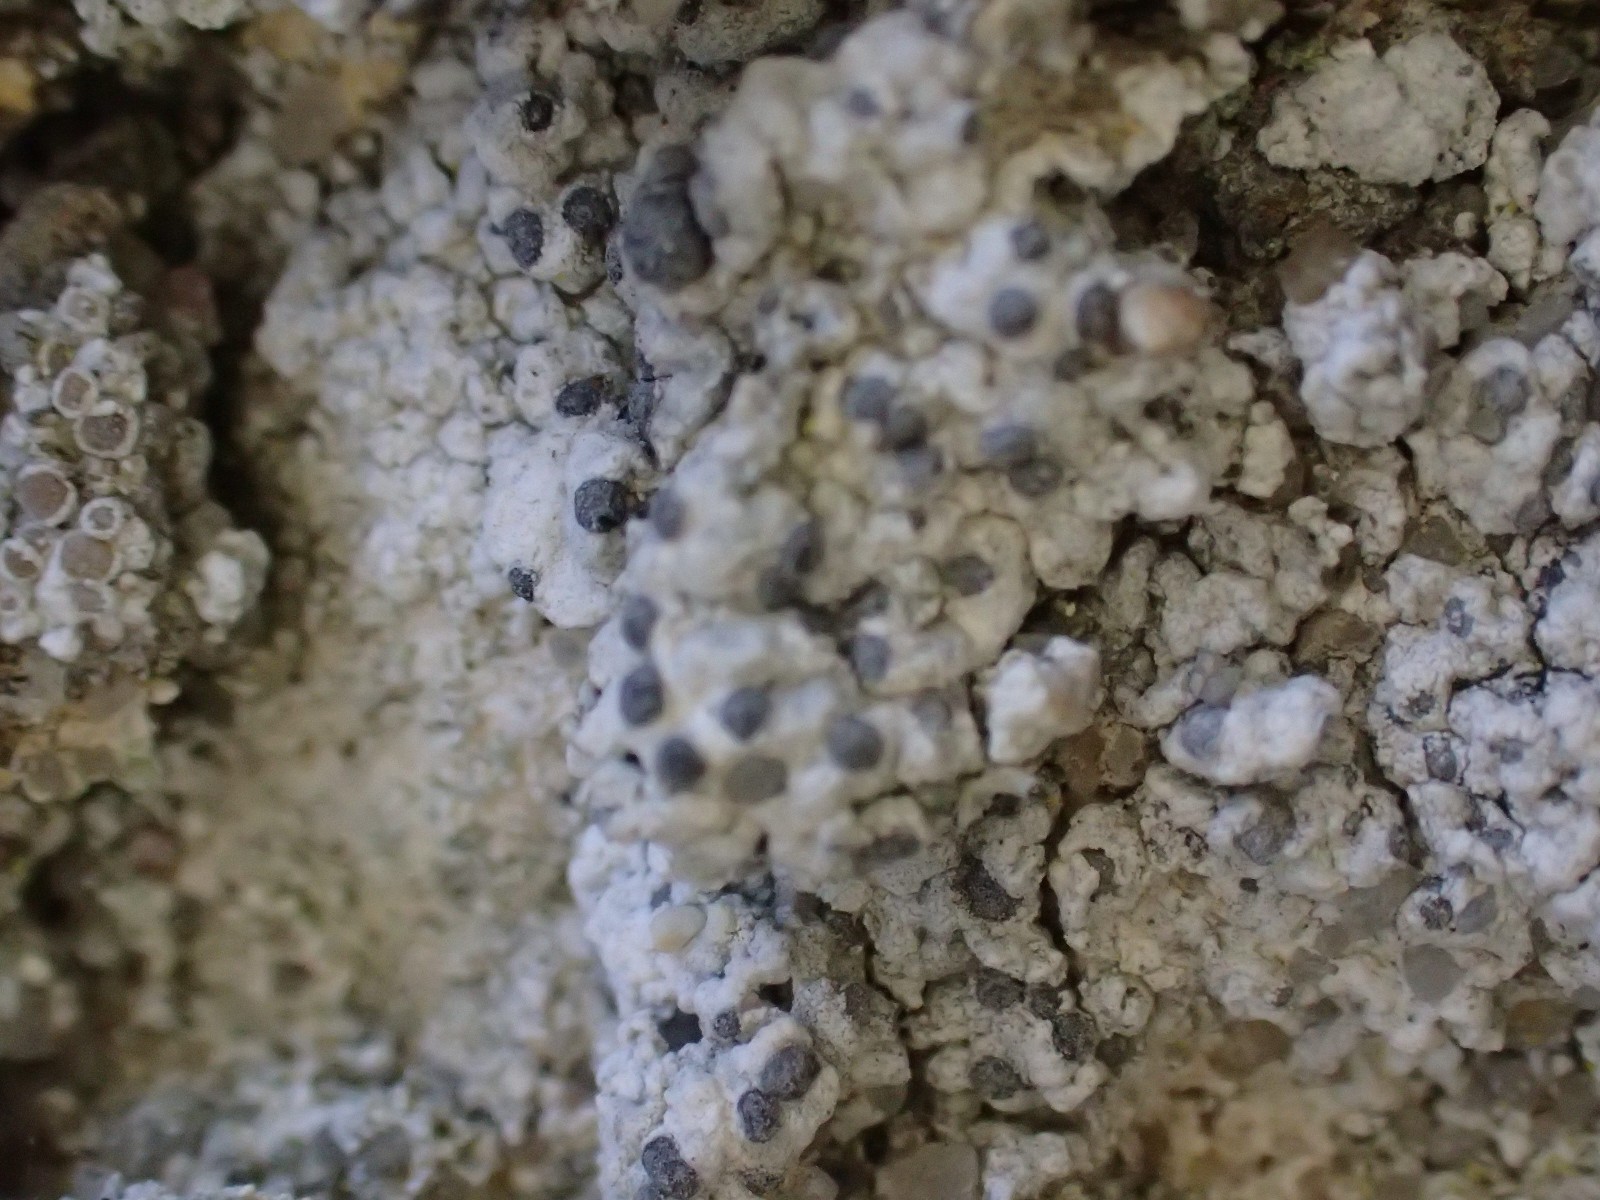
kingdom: Fungi
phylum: Ascomycota
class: Lecanoromycetes
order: Caliciales
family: Caliciaceae
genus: Diplotomma
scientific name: Diplotomma alboatrum
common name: sorthvid sortskivelav
